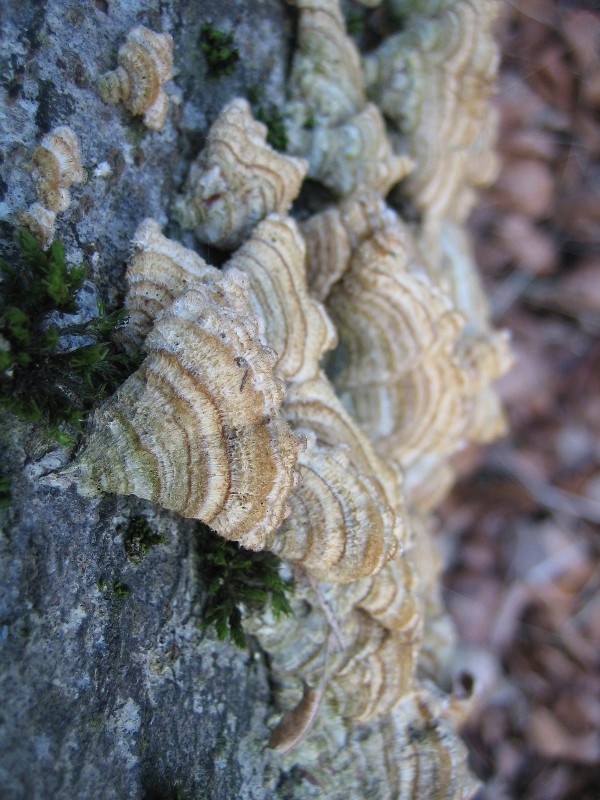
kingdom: Fungi
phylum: Basidiomycota
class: Agaricomycetes
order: Russulales
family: Stereaceae
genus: Stereum
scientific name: Stereum hirsutum
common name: håret lædersvamp
